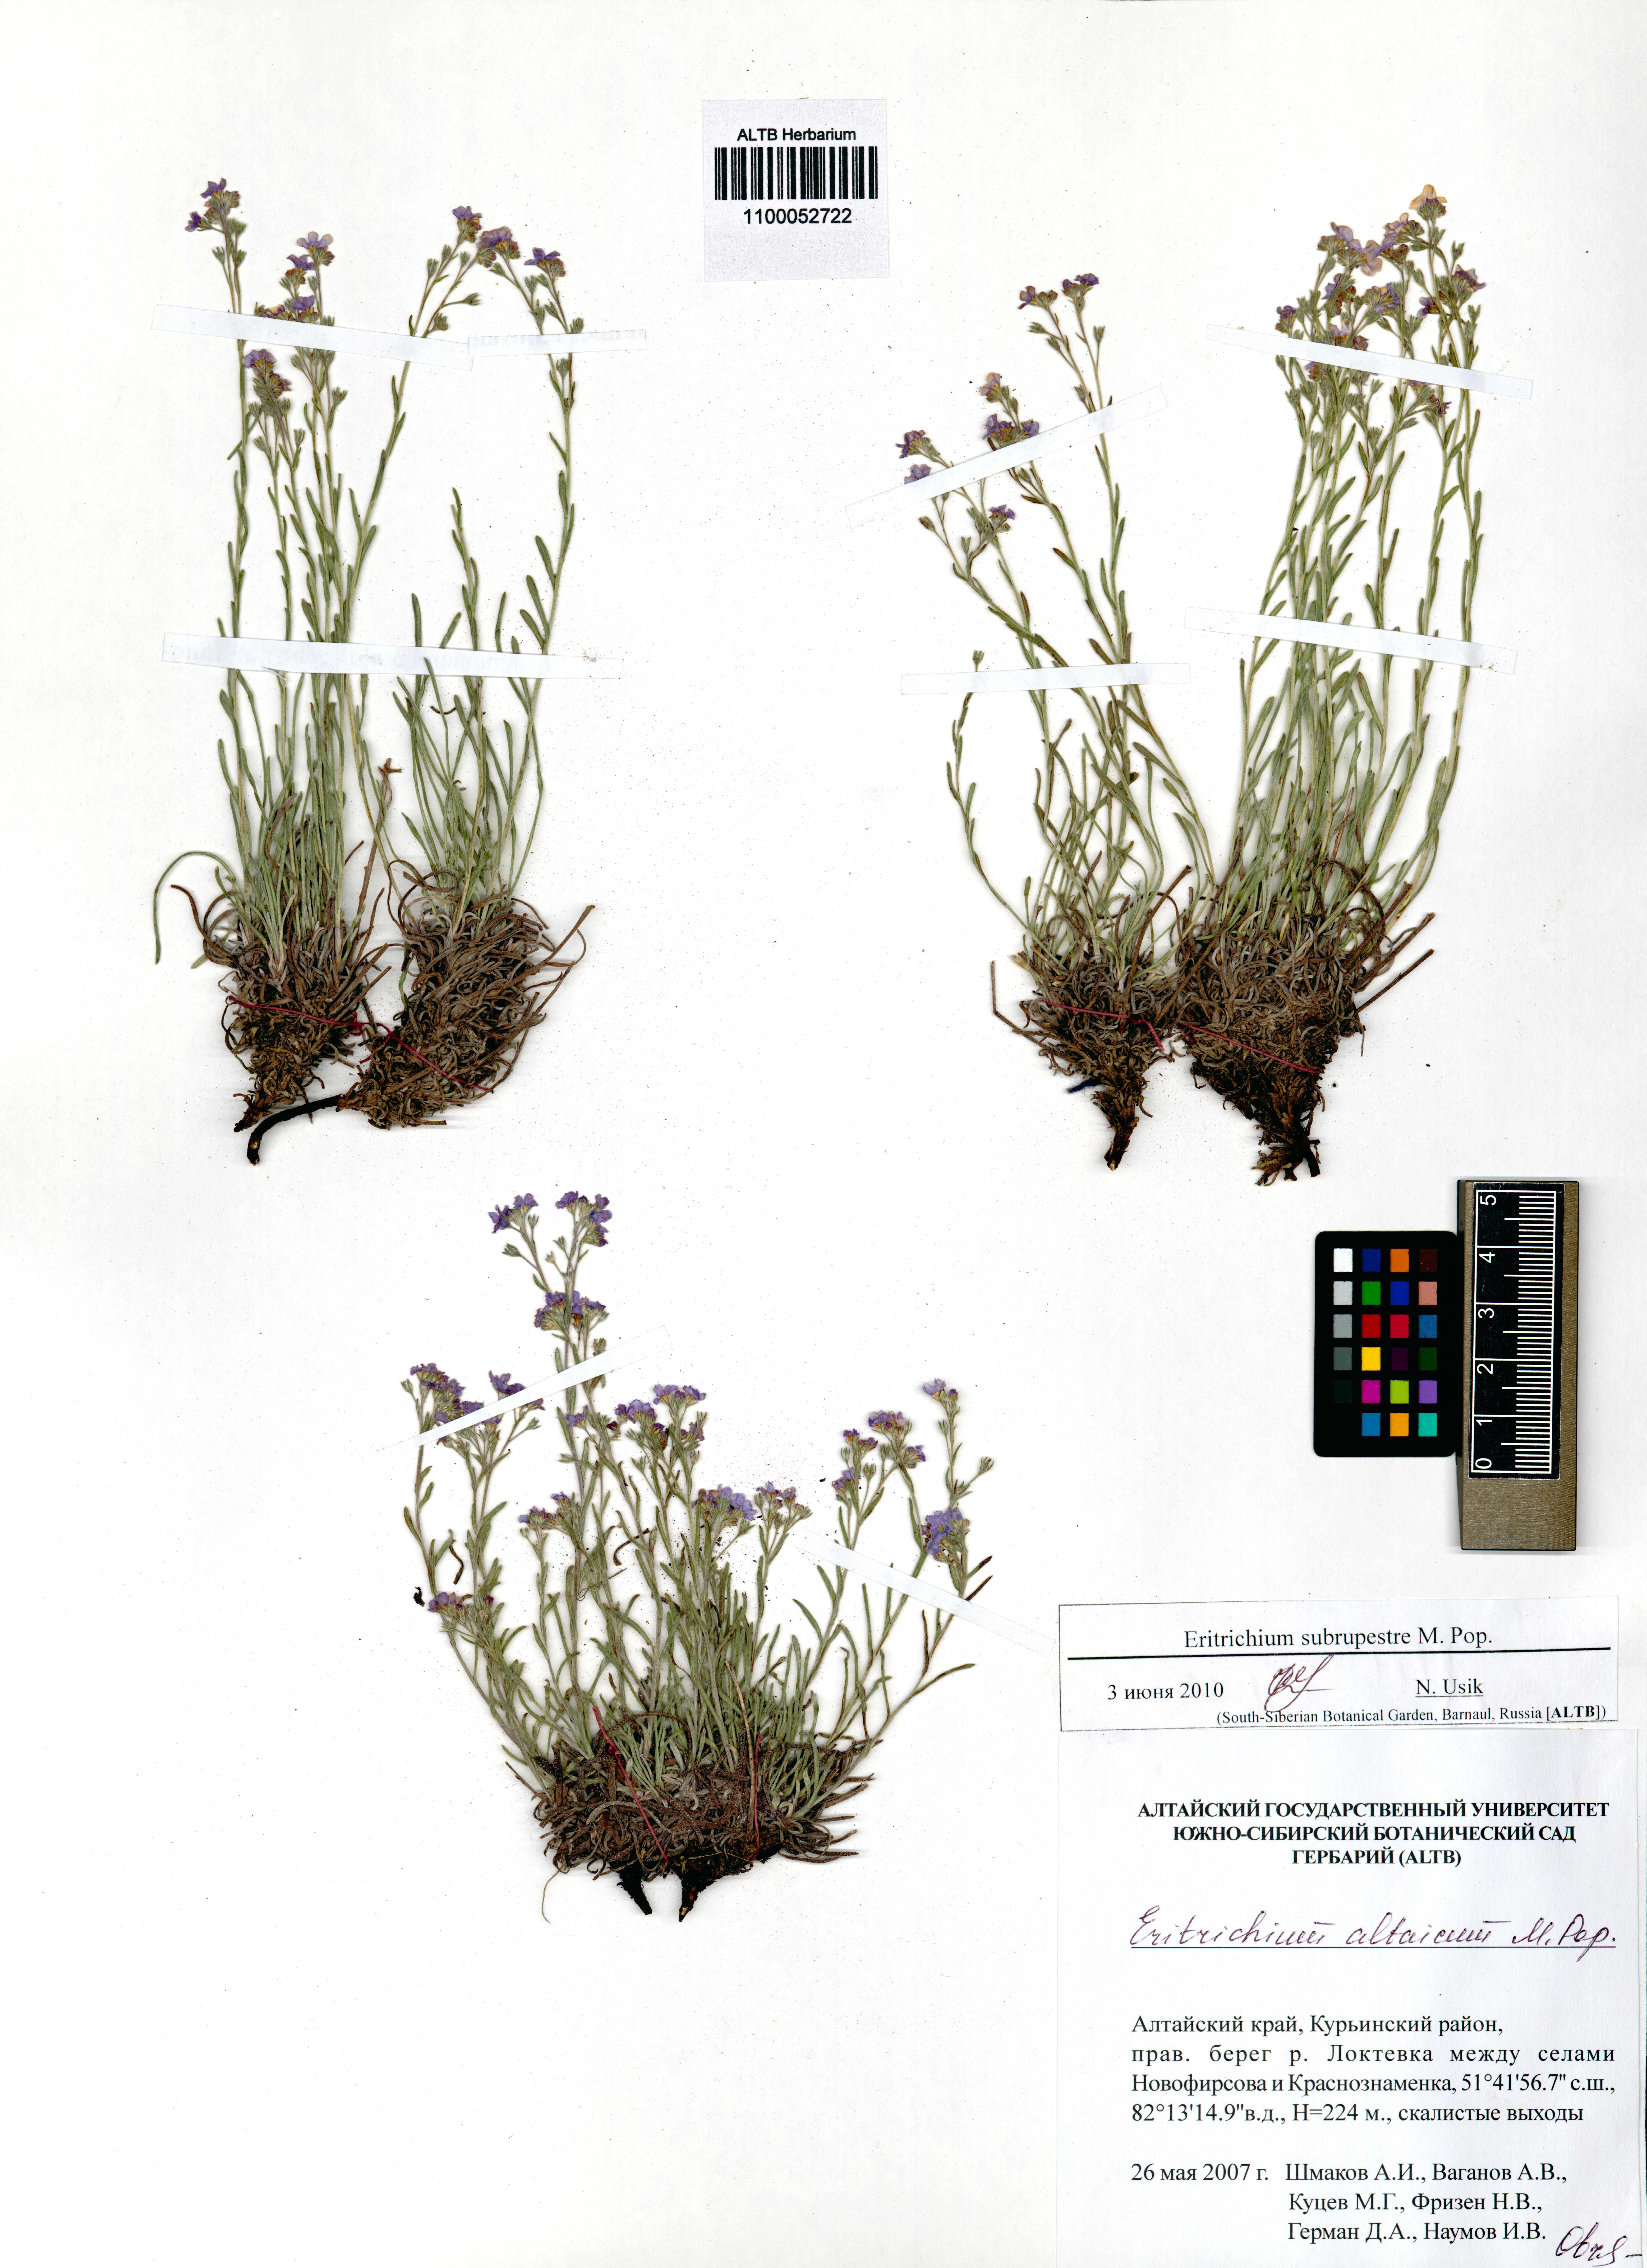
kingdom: Plantae
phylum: Tracheophyta
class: Magnoliopsida
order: Boraginales
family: Boraginaceae
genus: Eritrichium
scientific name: Eritrichium pauciflorum
